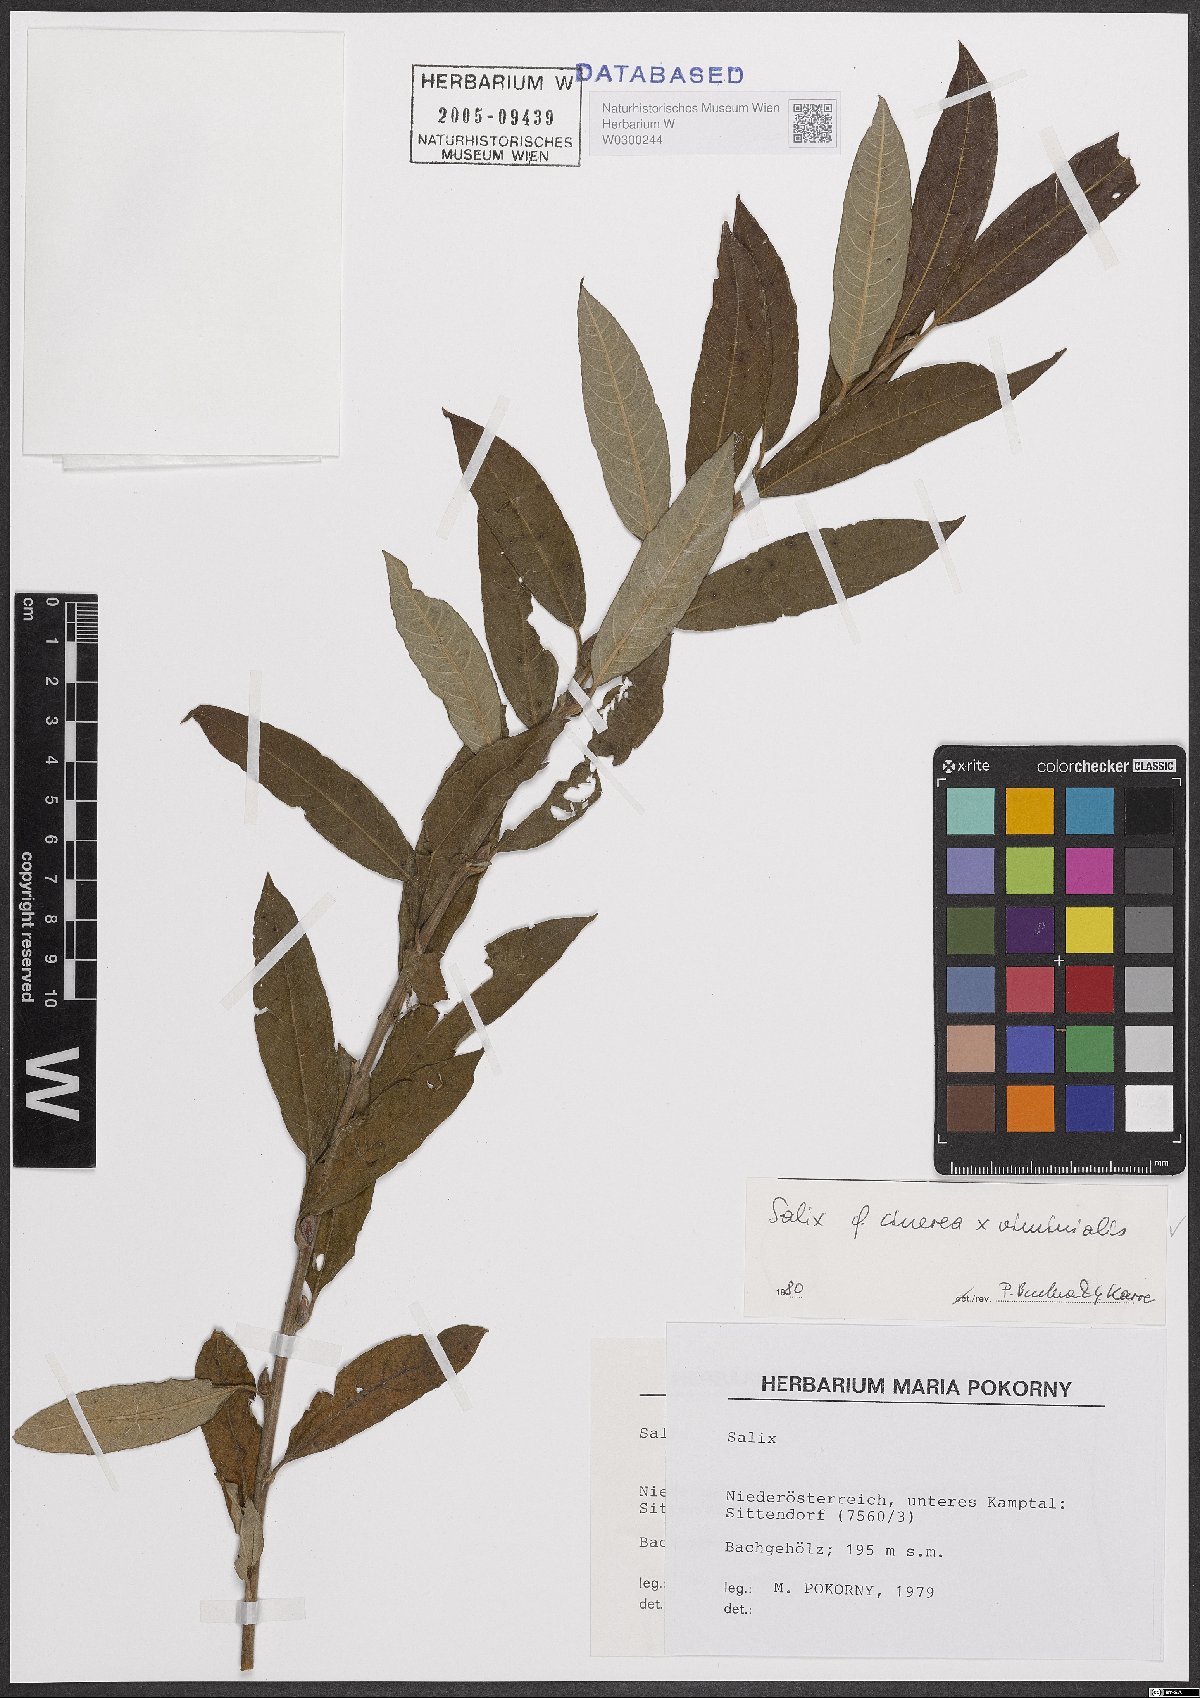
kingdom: Plantae
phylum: Tracheophyta
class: Magnoliopsida
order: Malpighiales
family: Salicaceae
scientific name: Salicaceae
